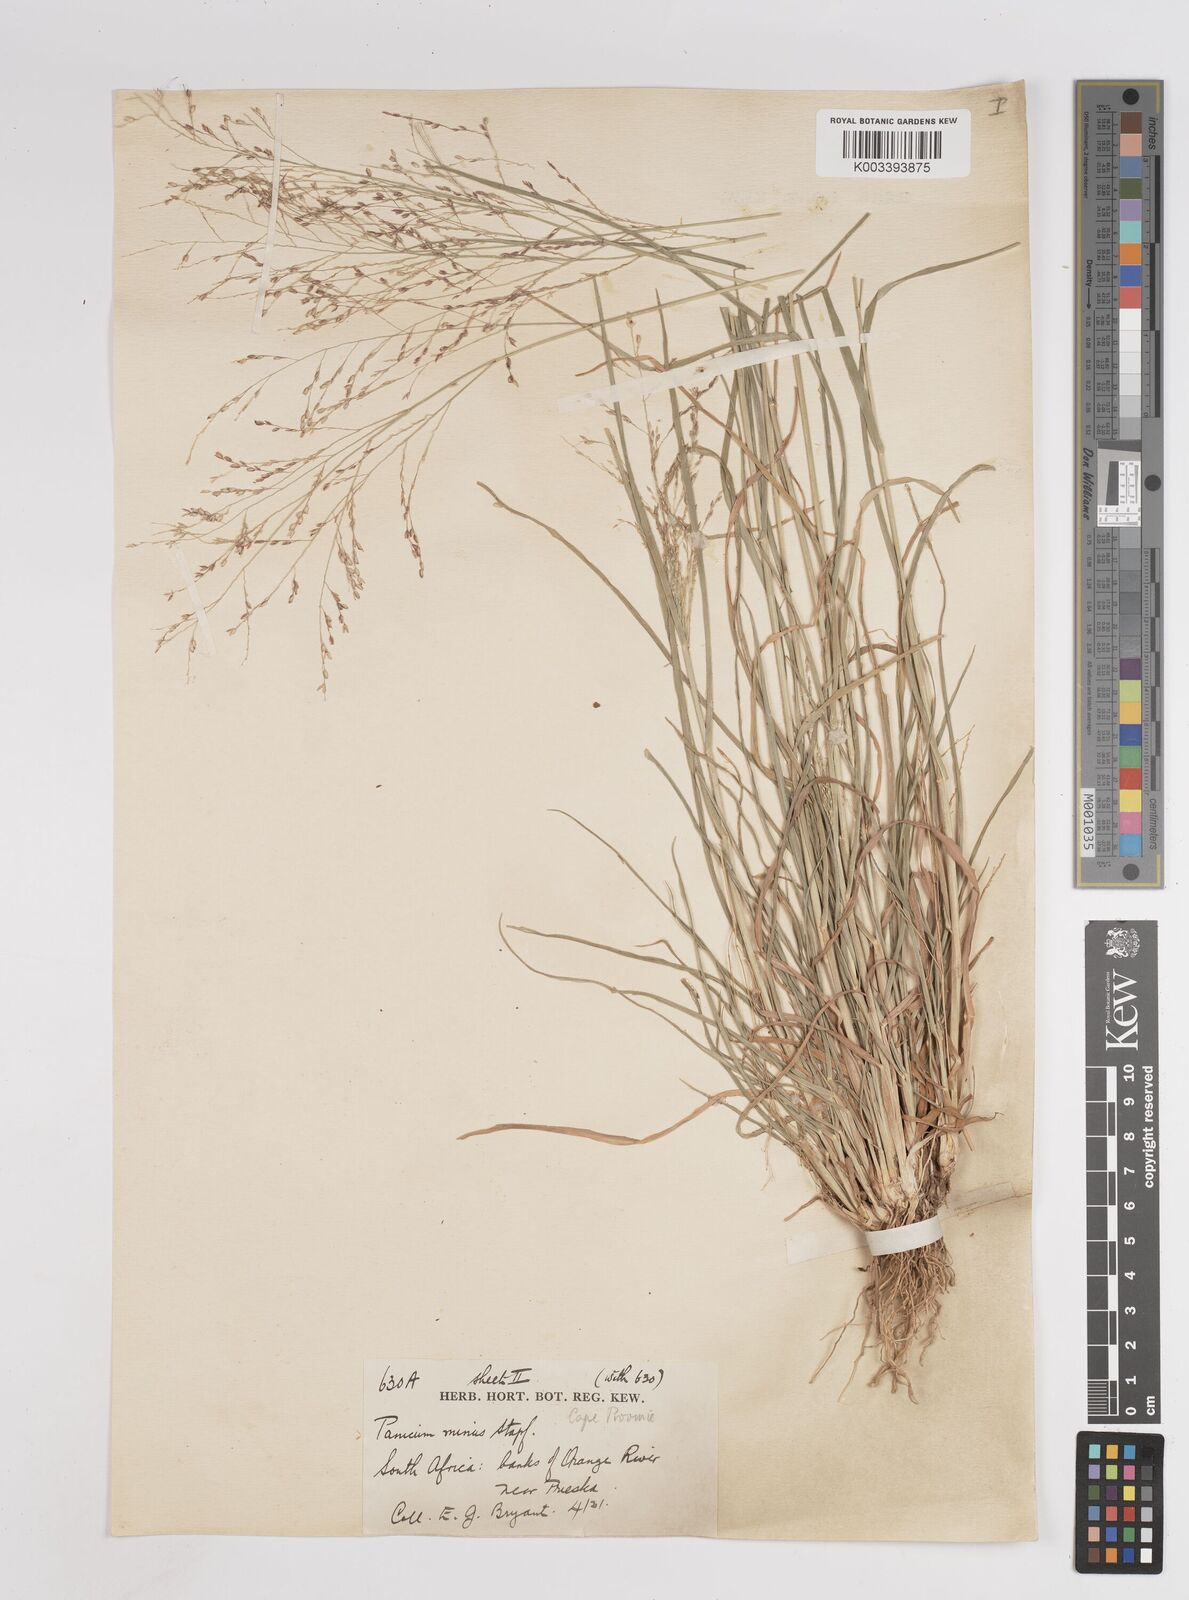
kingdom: Plantae
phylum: Tracheophyta
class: Liliopsida
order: Poales
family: Poaceae
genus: Panicum
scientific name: Panicum stapfianum
